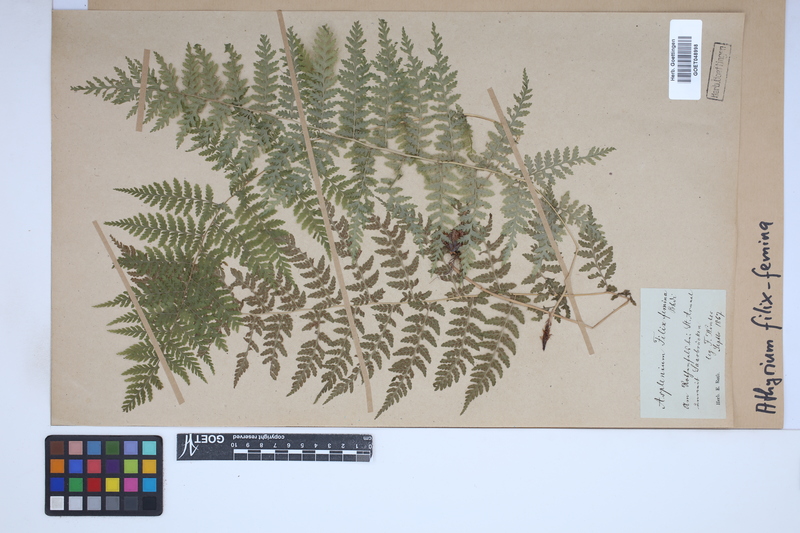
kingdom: Plantae
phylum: Tracheophyta
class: Polypodiopsida
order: Polypodiales
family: Athyriaceae
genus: Athyrium
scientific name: Athyrium filix-femina
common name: Lady fern
